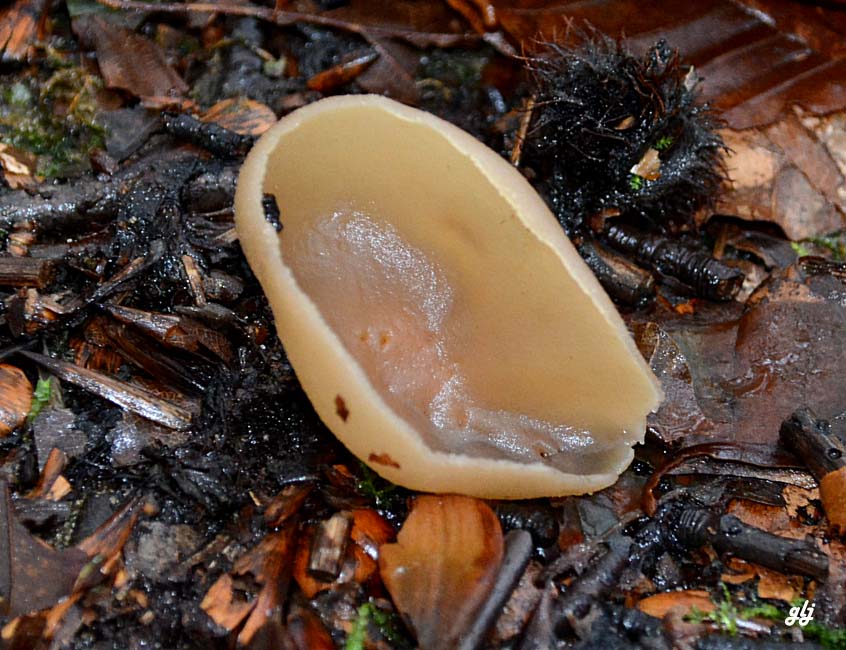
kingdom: Fungi
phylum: Ascomycota
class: Pezizomycetes
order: Pezizales
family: Pezizaceae
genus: Peziza
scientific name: Peziza
